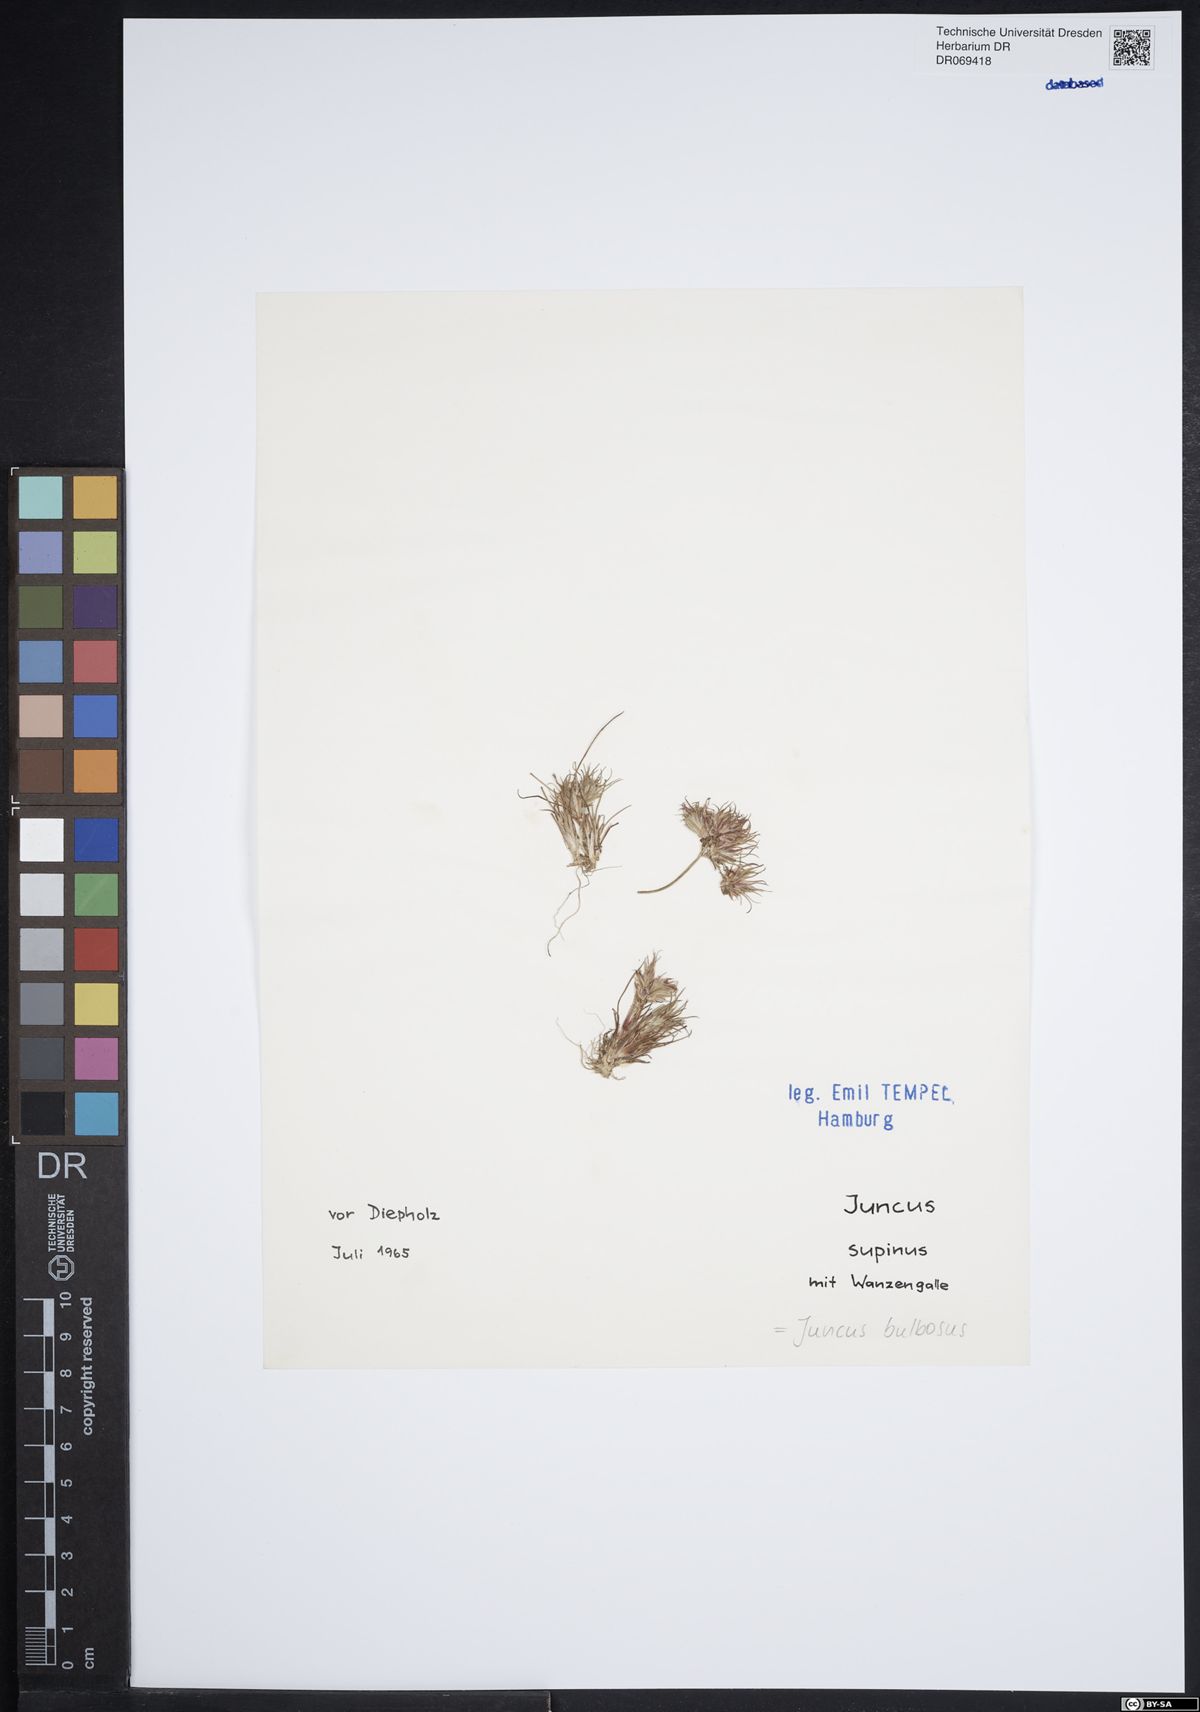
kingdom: Plantae
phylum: Tracheophyta
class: Liliopsida
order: Poales
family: Juncaceae
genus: Juncus
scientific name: Juncus bulbosus
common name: Bulbous rush
